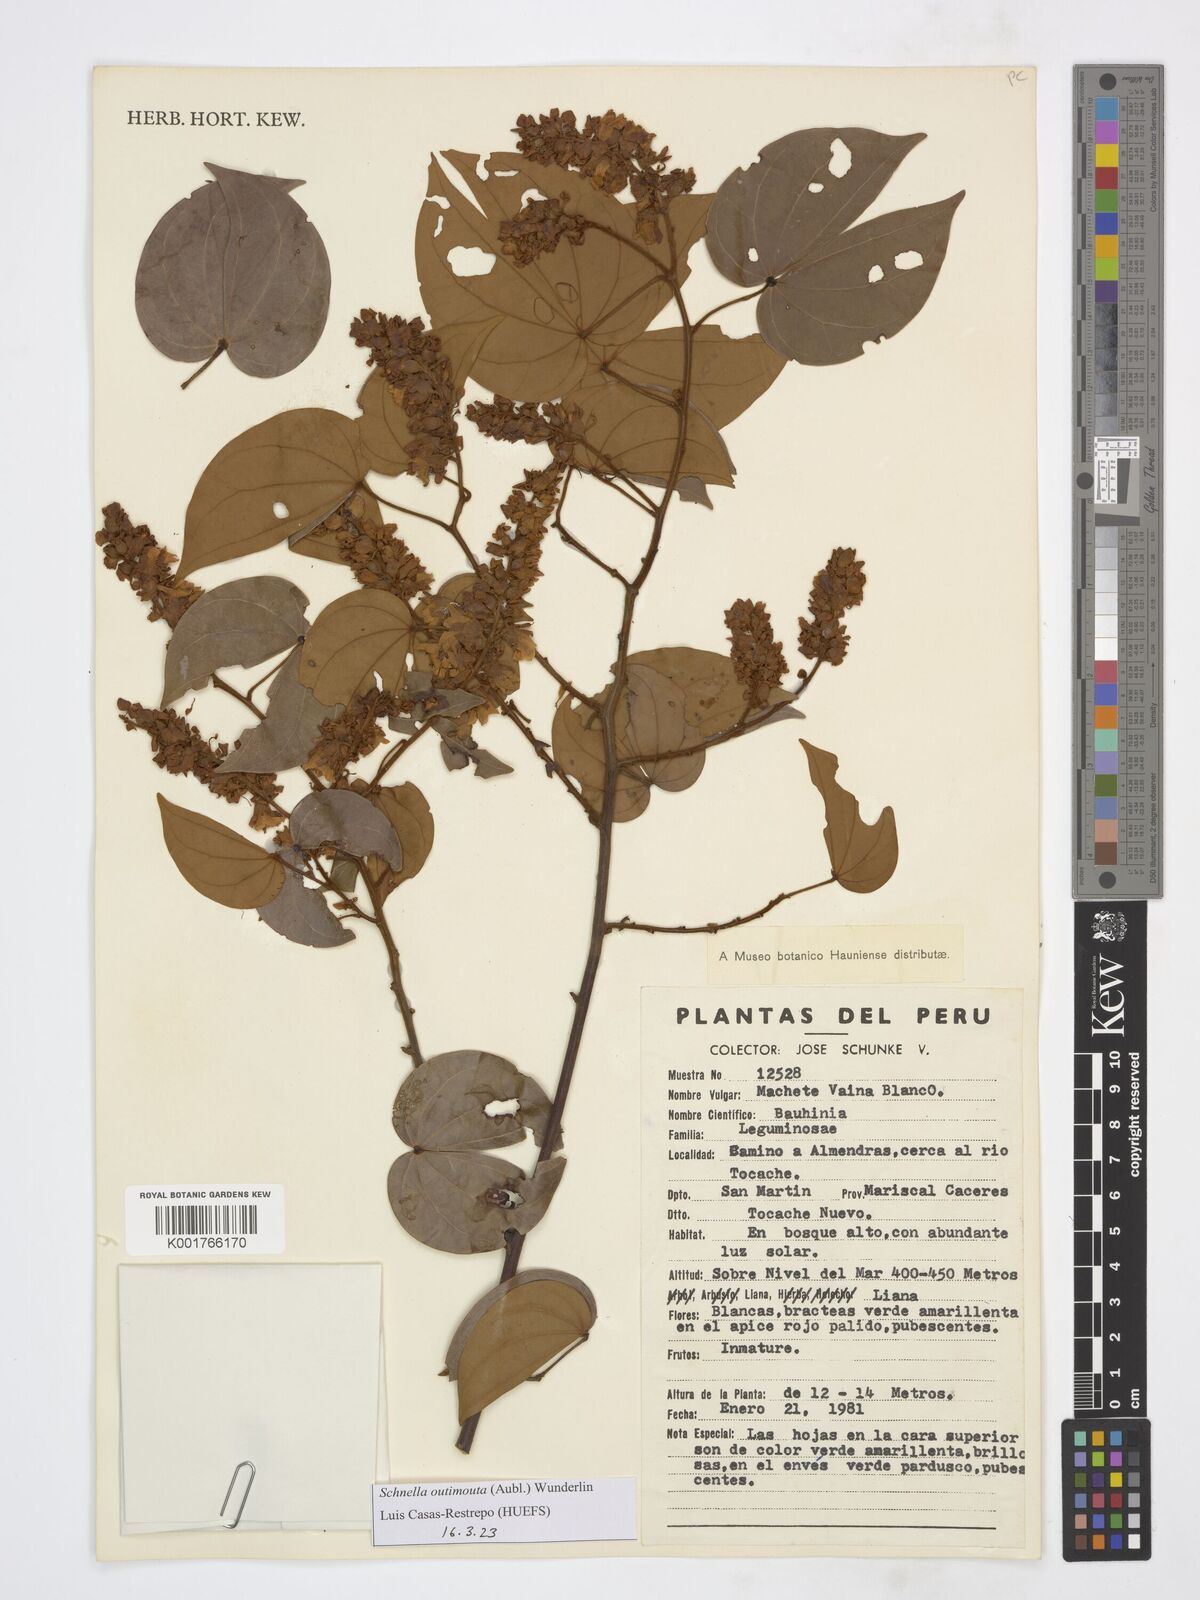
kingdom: Plantae
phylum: Tracheophyta
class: Magnoliopsida
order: Fabales
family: Fabaceae
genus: Schnella
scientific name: Schnella outimouta
